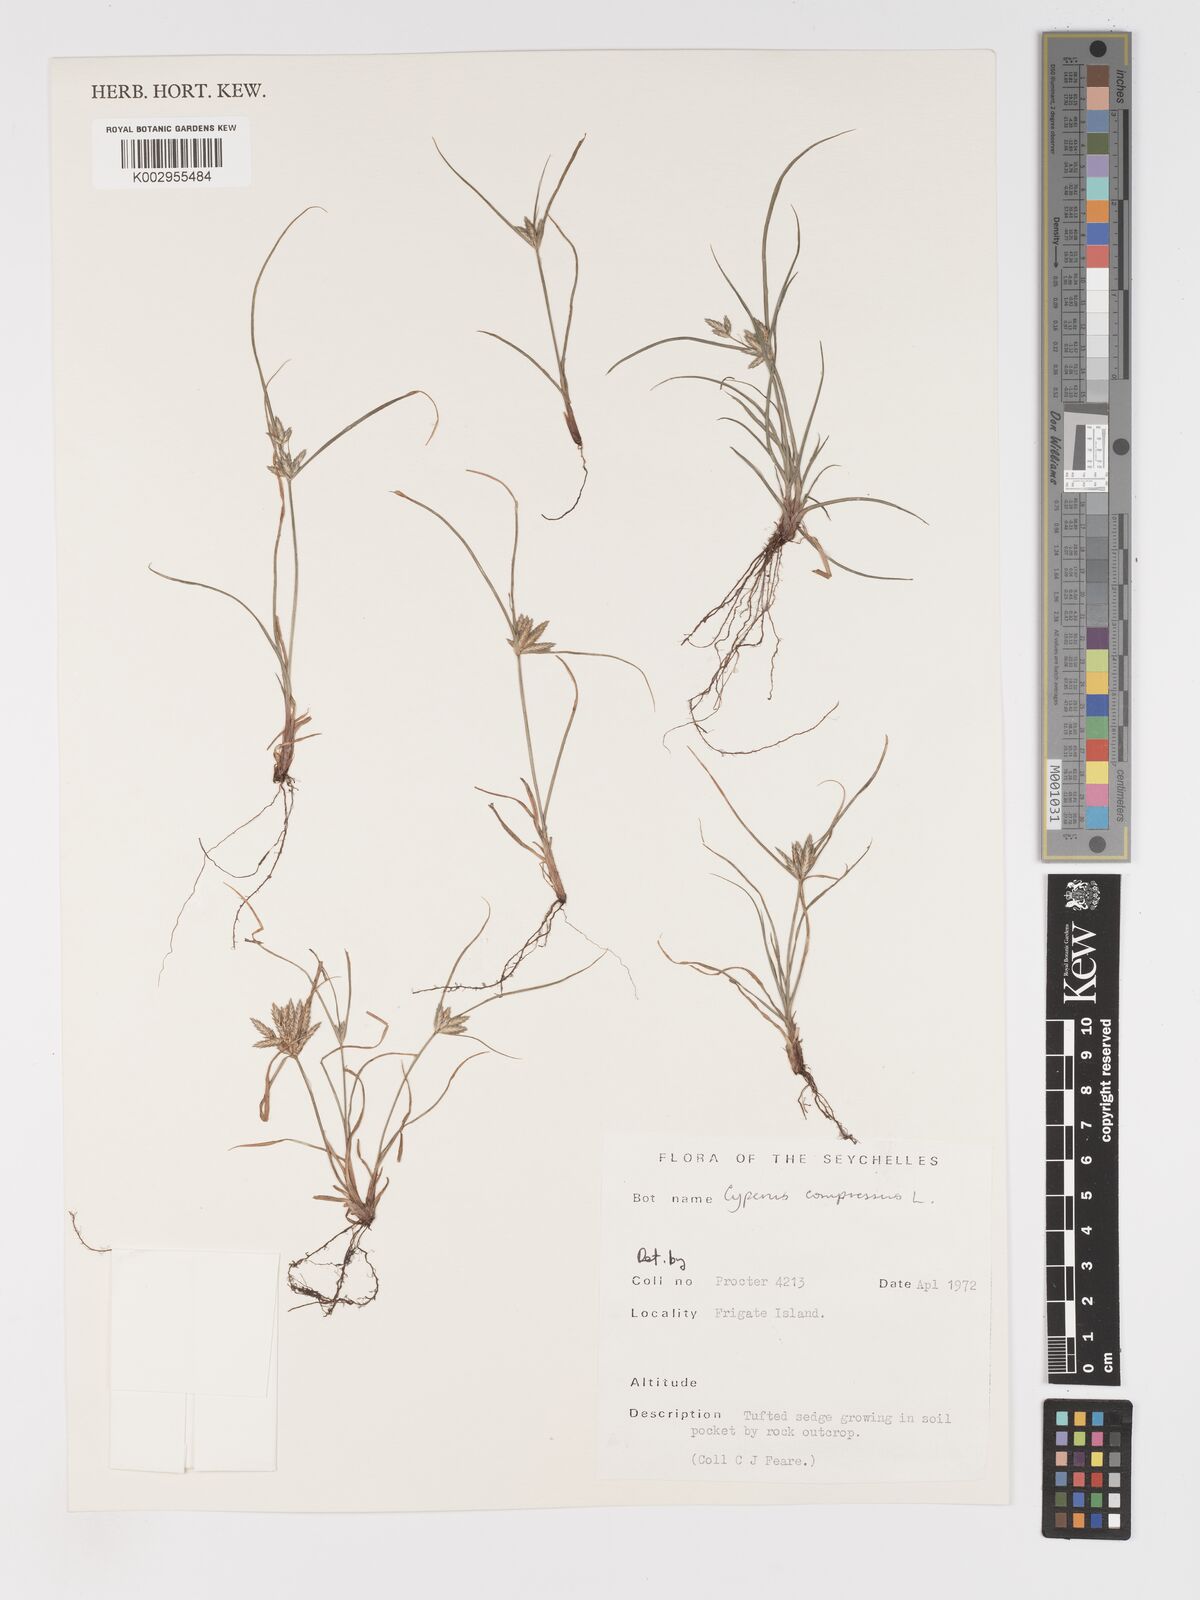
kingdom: Plantae
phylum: Tracheophyta
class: Liliopsida
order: Poales
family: Cyperaceae
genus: Cyperus
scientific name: Cyperus compressus
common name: Poorland flatsedge
